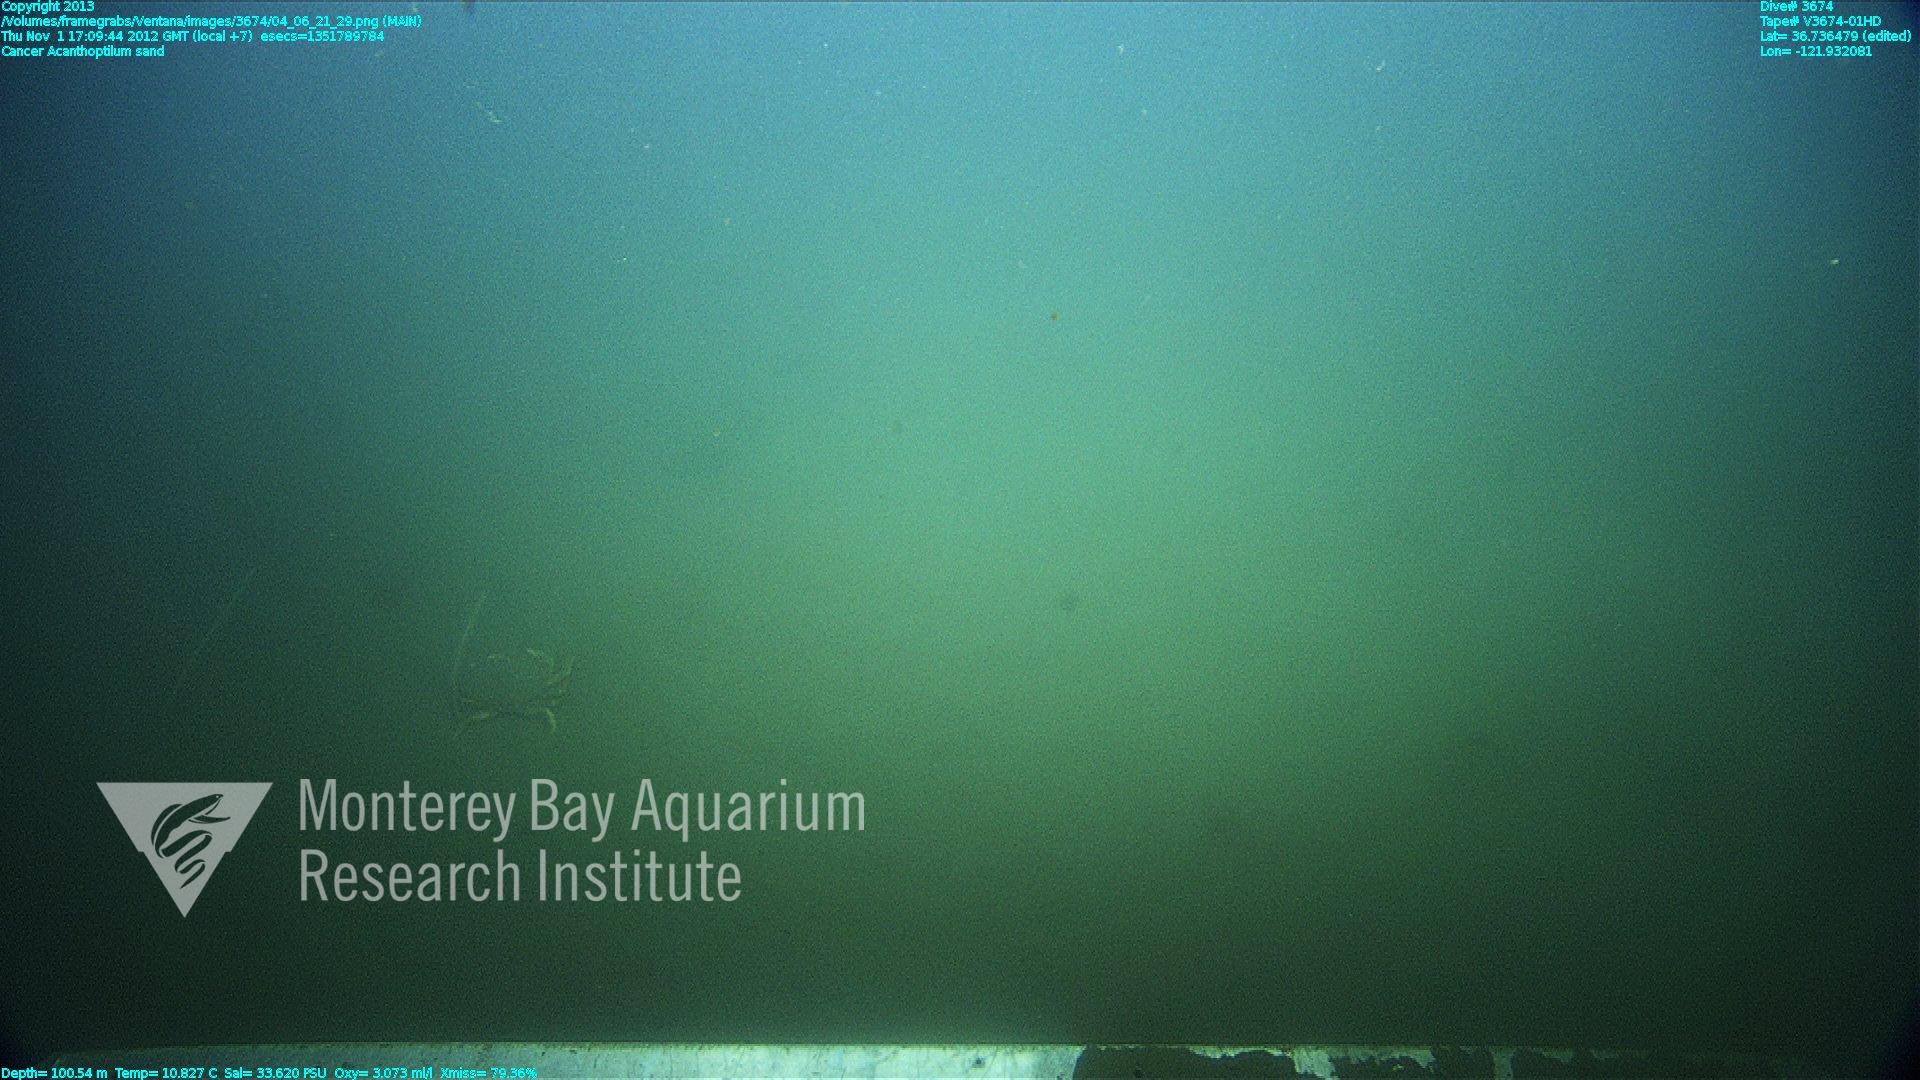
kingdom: Animalia
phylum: Cnidaria
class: Anthozoa
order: Scleralcyonacea
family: Virgulariidae
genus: Acanthoptilum
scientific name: Acanthoptilum
